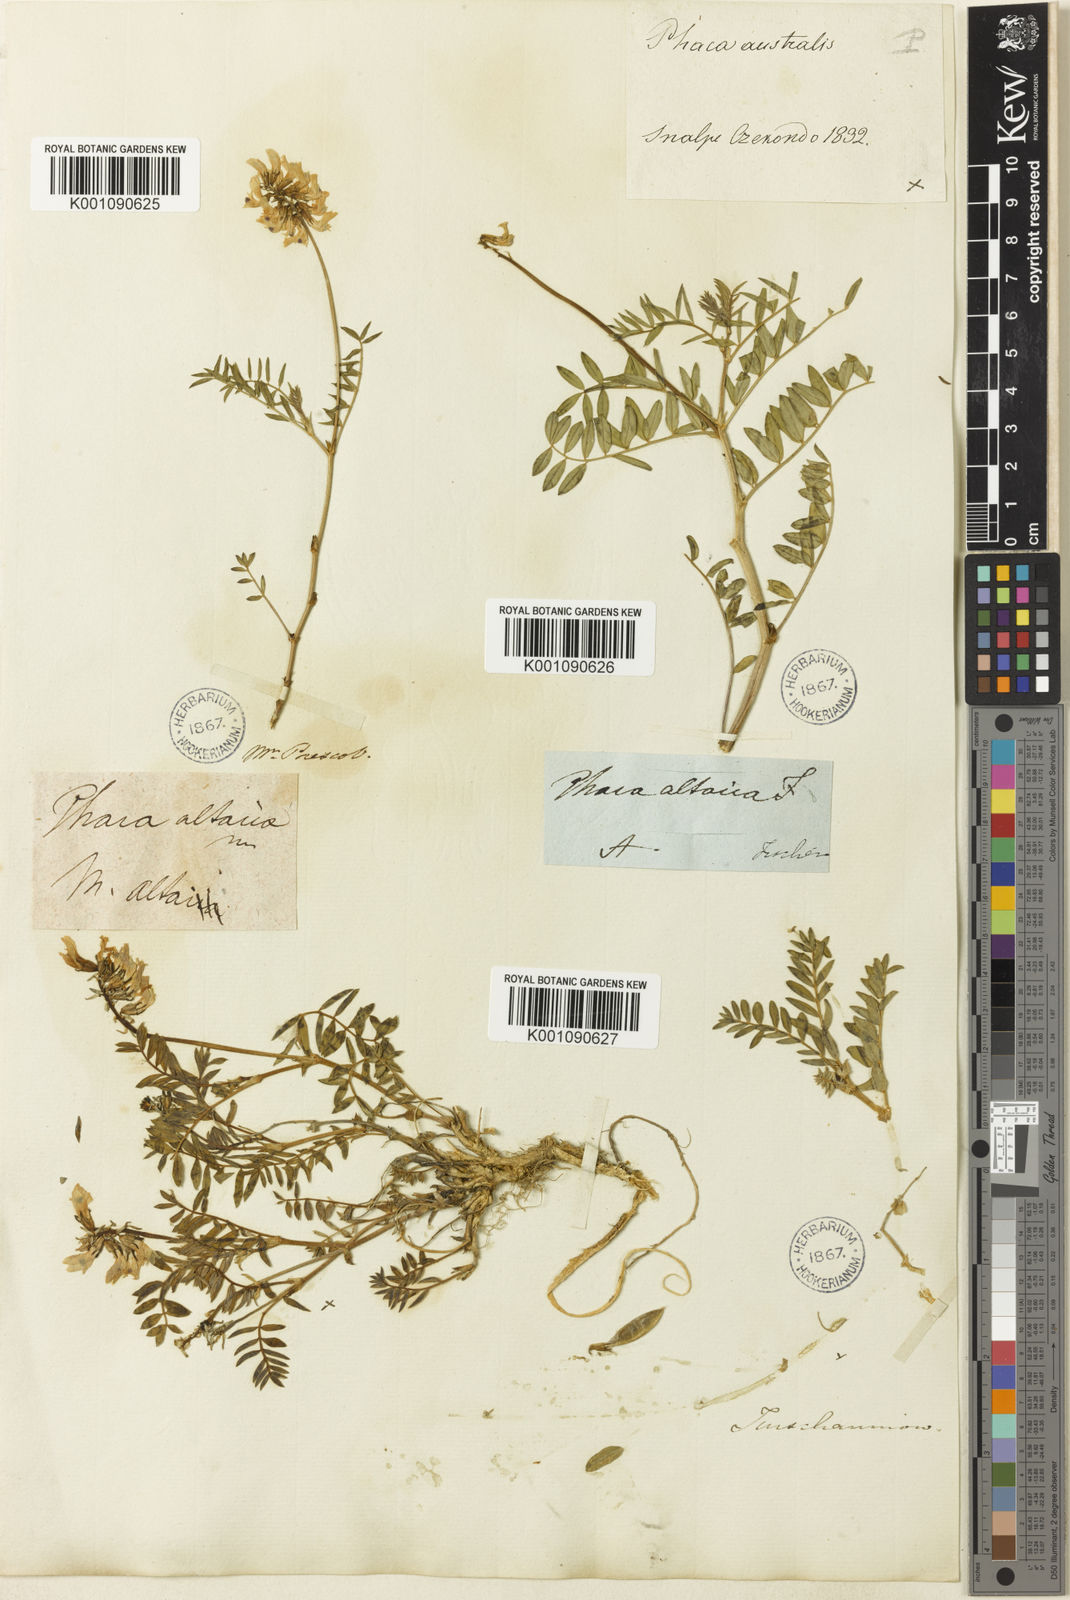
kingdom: Plantae
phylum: Tracheophyta
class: Magnoliopsida
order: Fabales
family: Fabaceae
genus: Astragalus
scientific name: Astragalus
